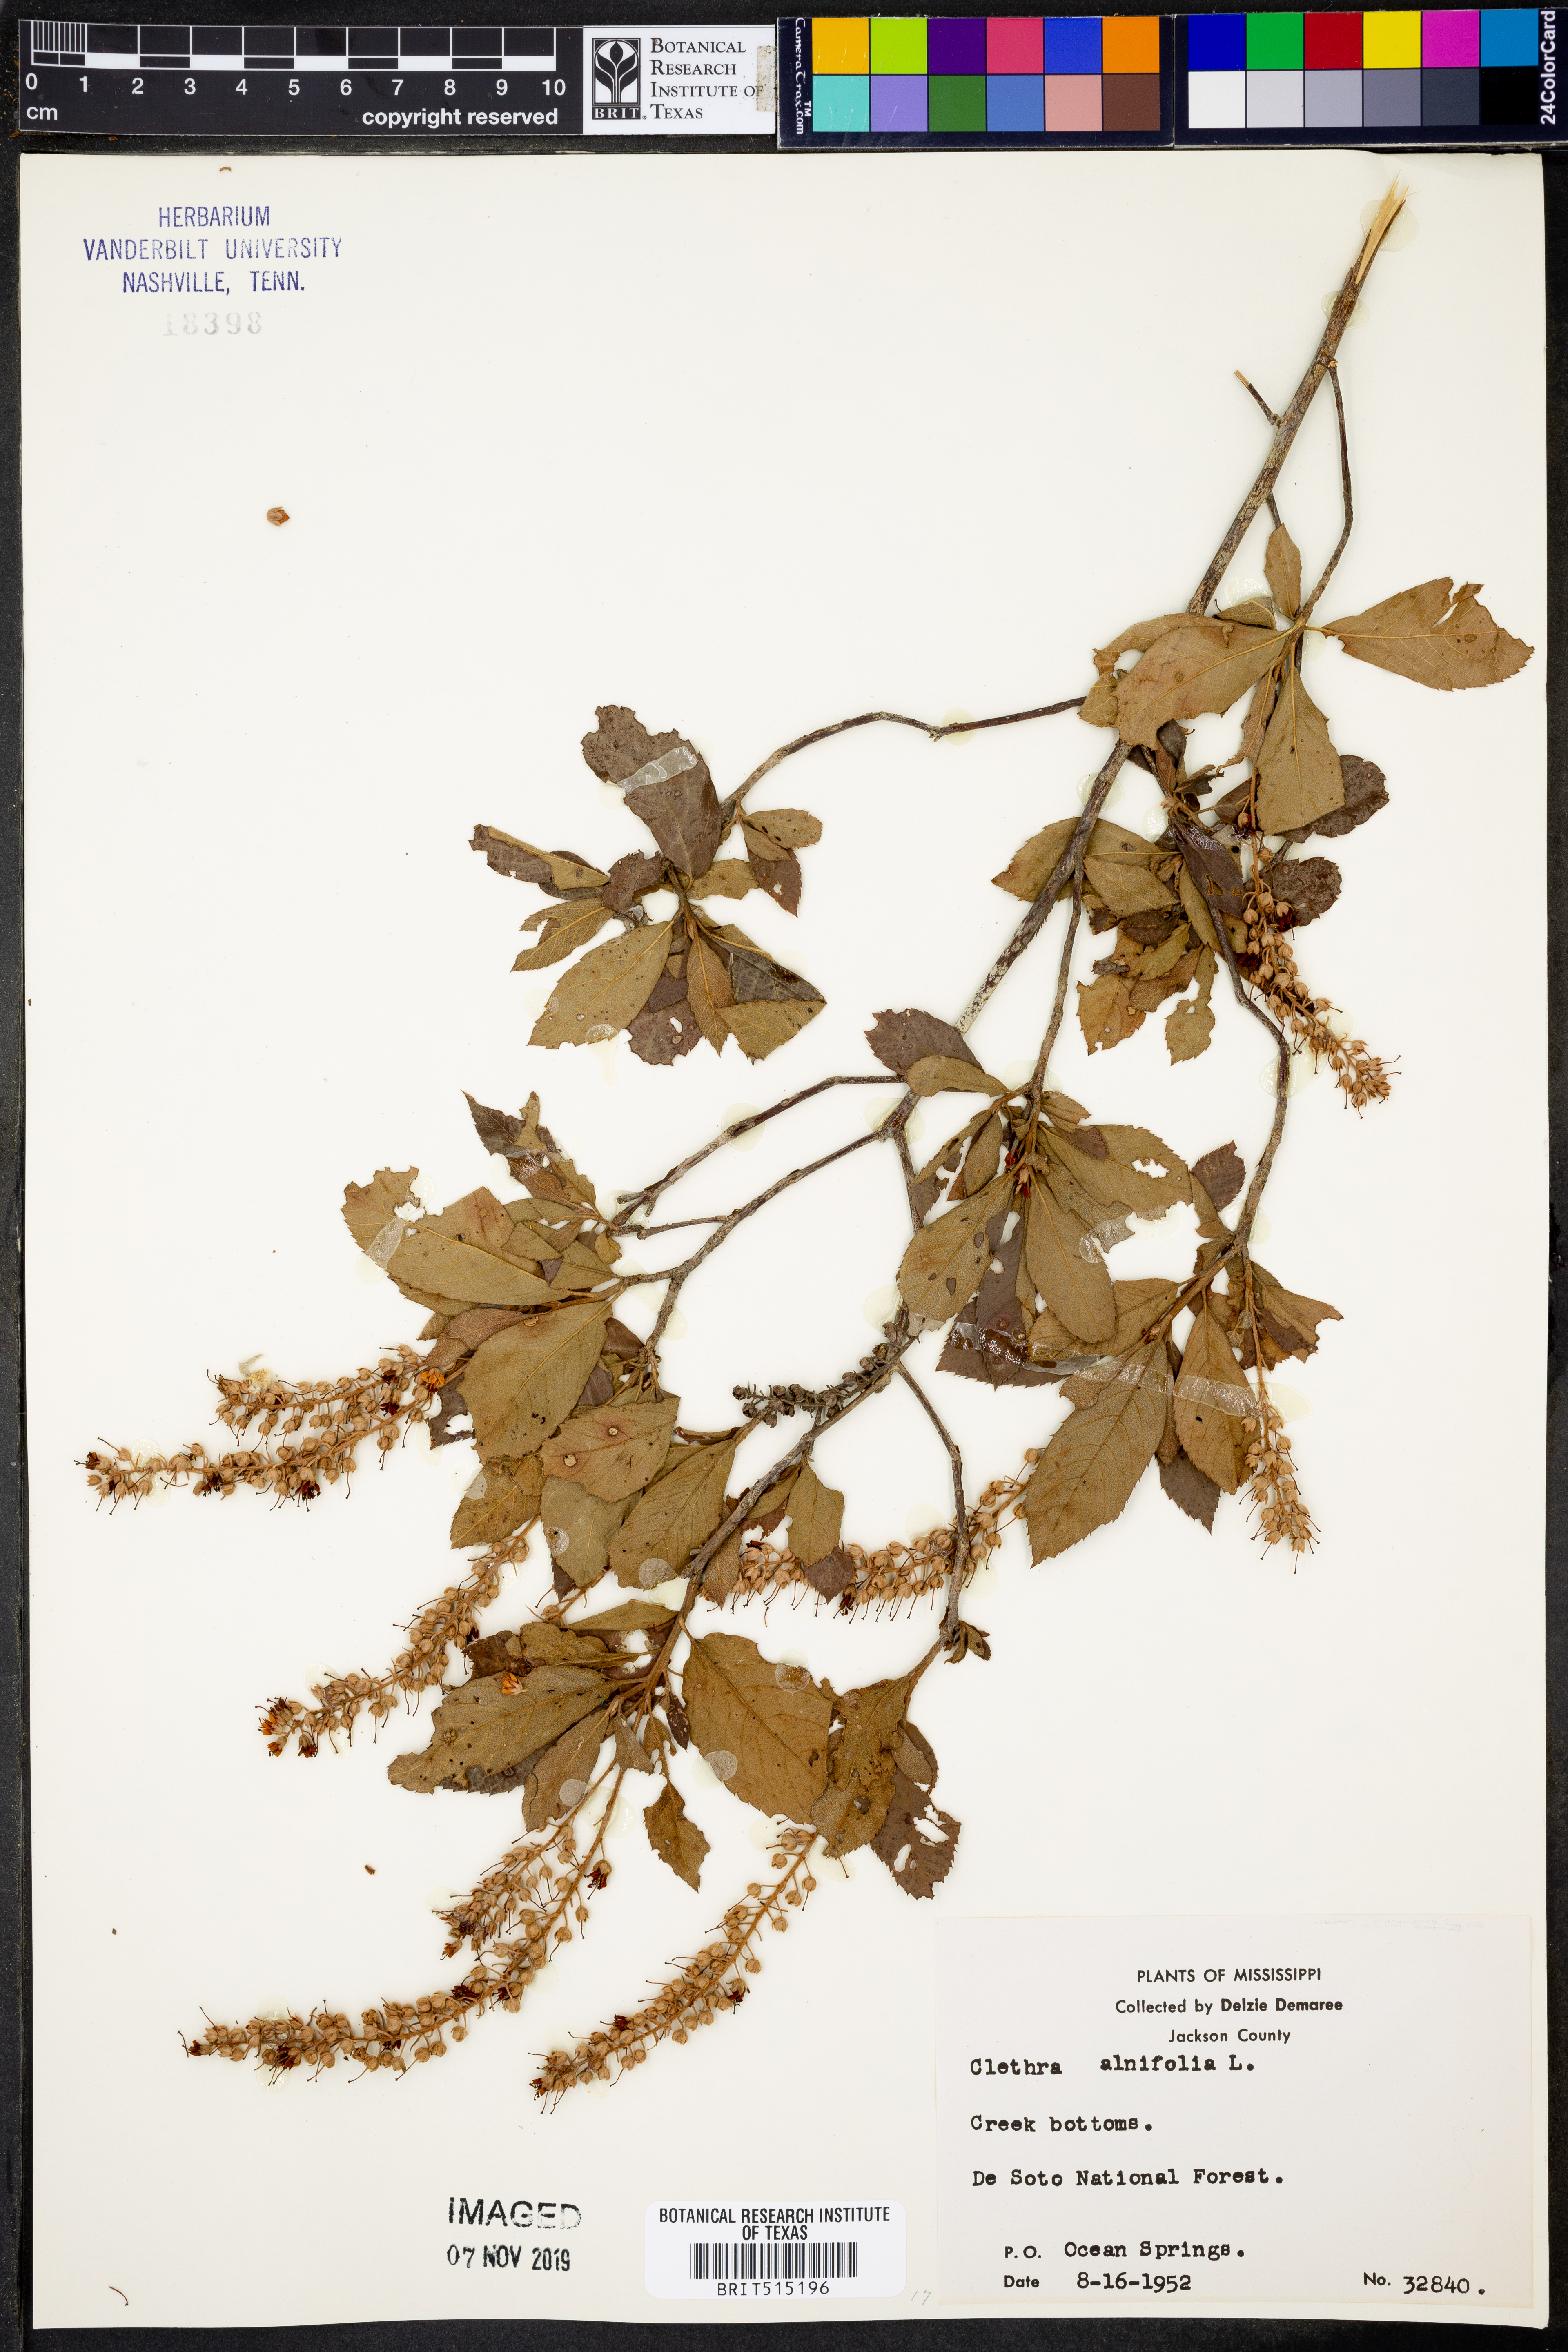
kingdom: Plantae
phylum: Tracheophyta
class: Magnoliopsida
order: Ericales
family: Clethraceae
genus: Clethra
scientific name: Clethra alnifolia
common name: Sweet pepperbush
